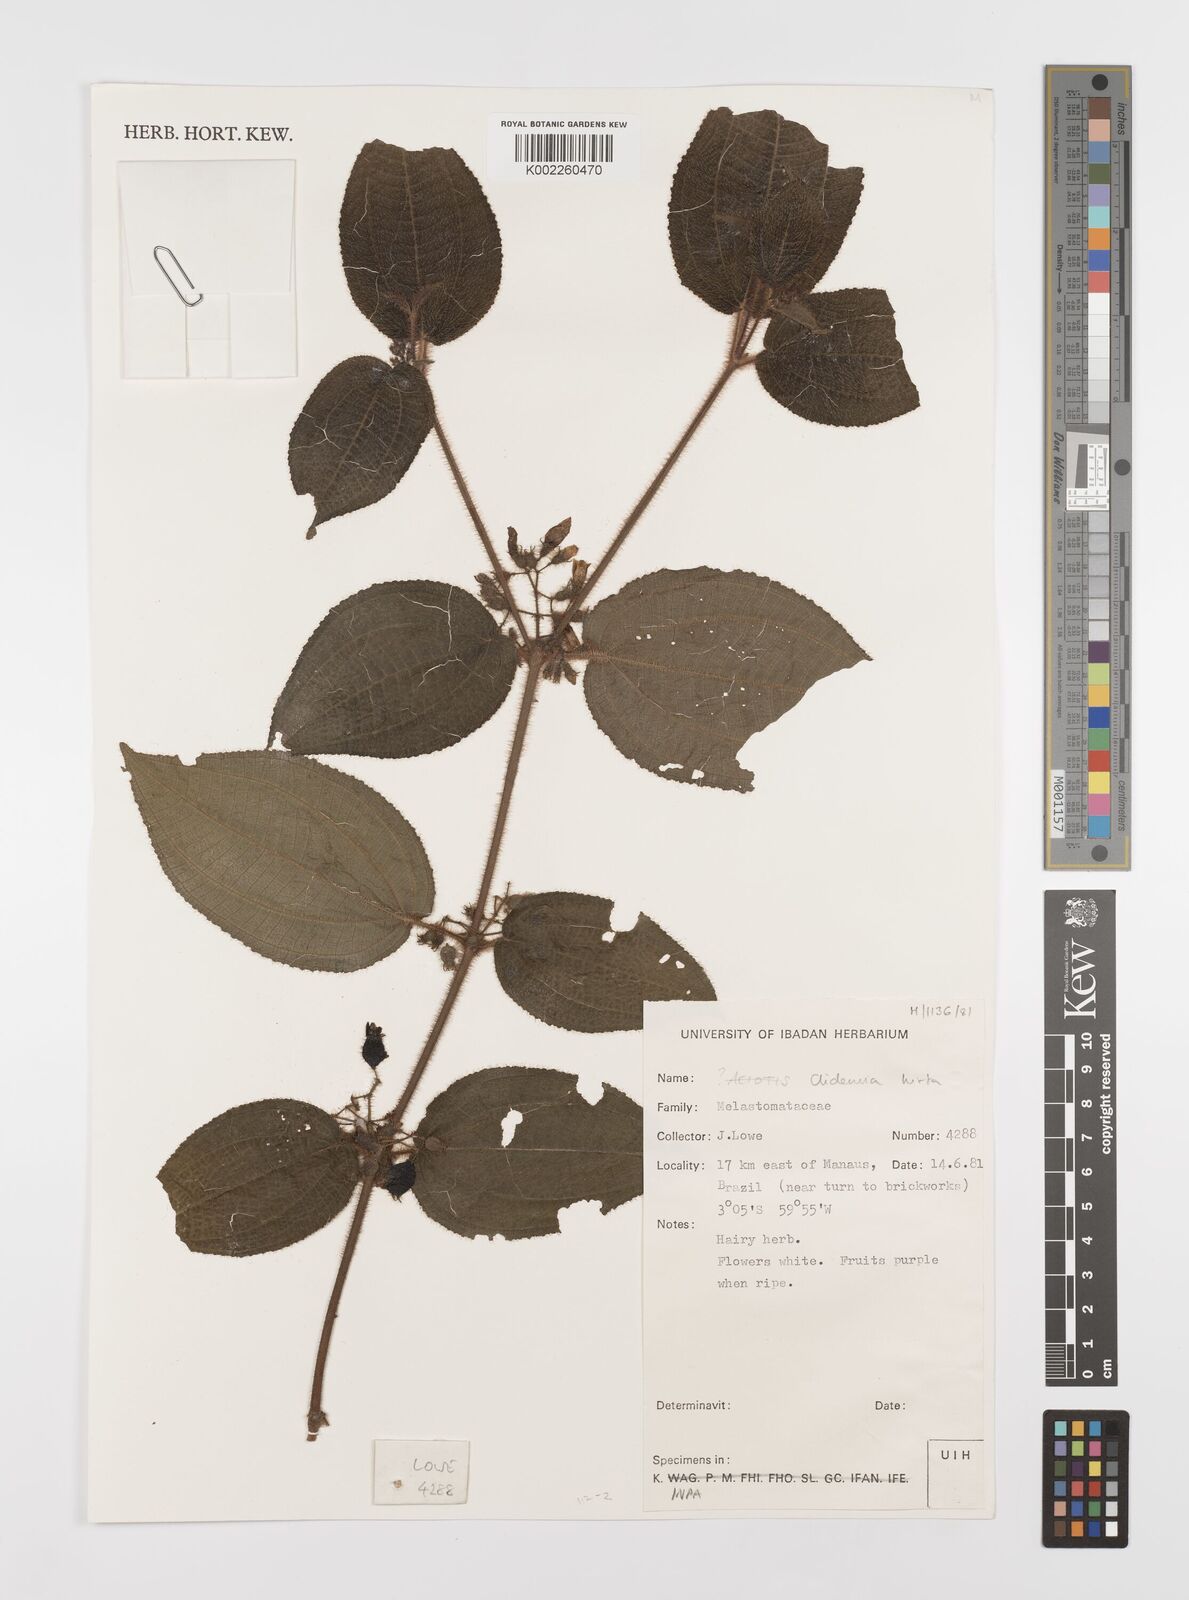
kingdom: Plantae
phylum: Tracheophyta
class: Magnoliopsida
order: Myrtales
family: Melastomataceae
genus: Miconia
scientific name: Miconia crenata
